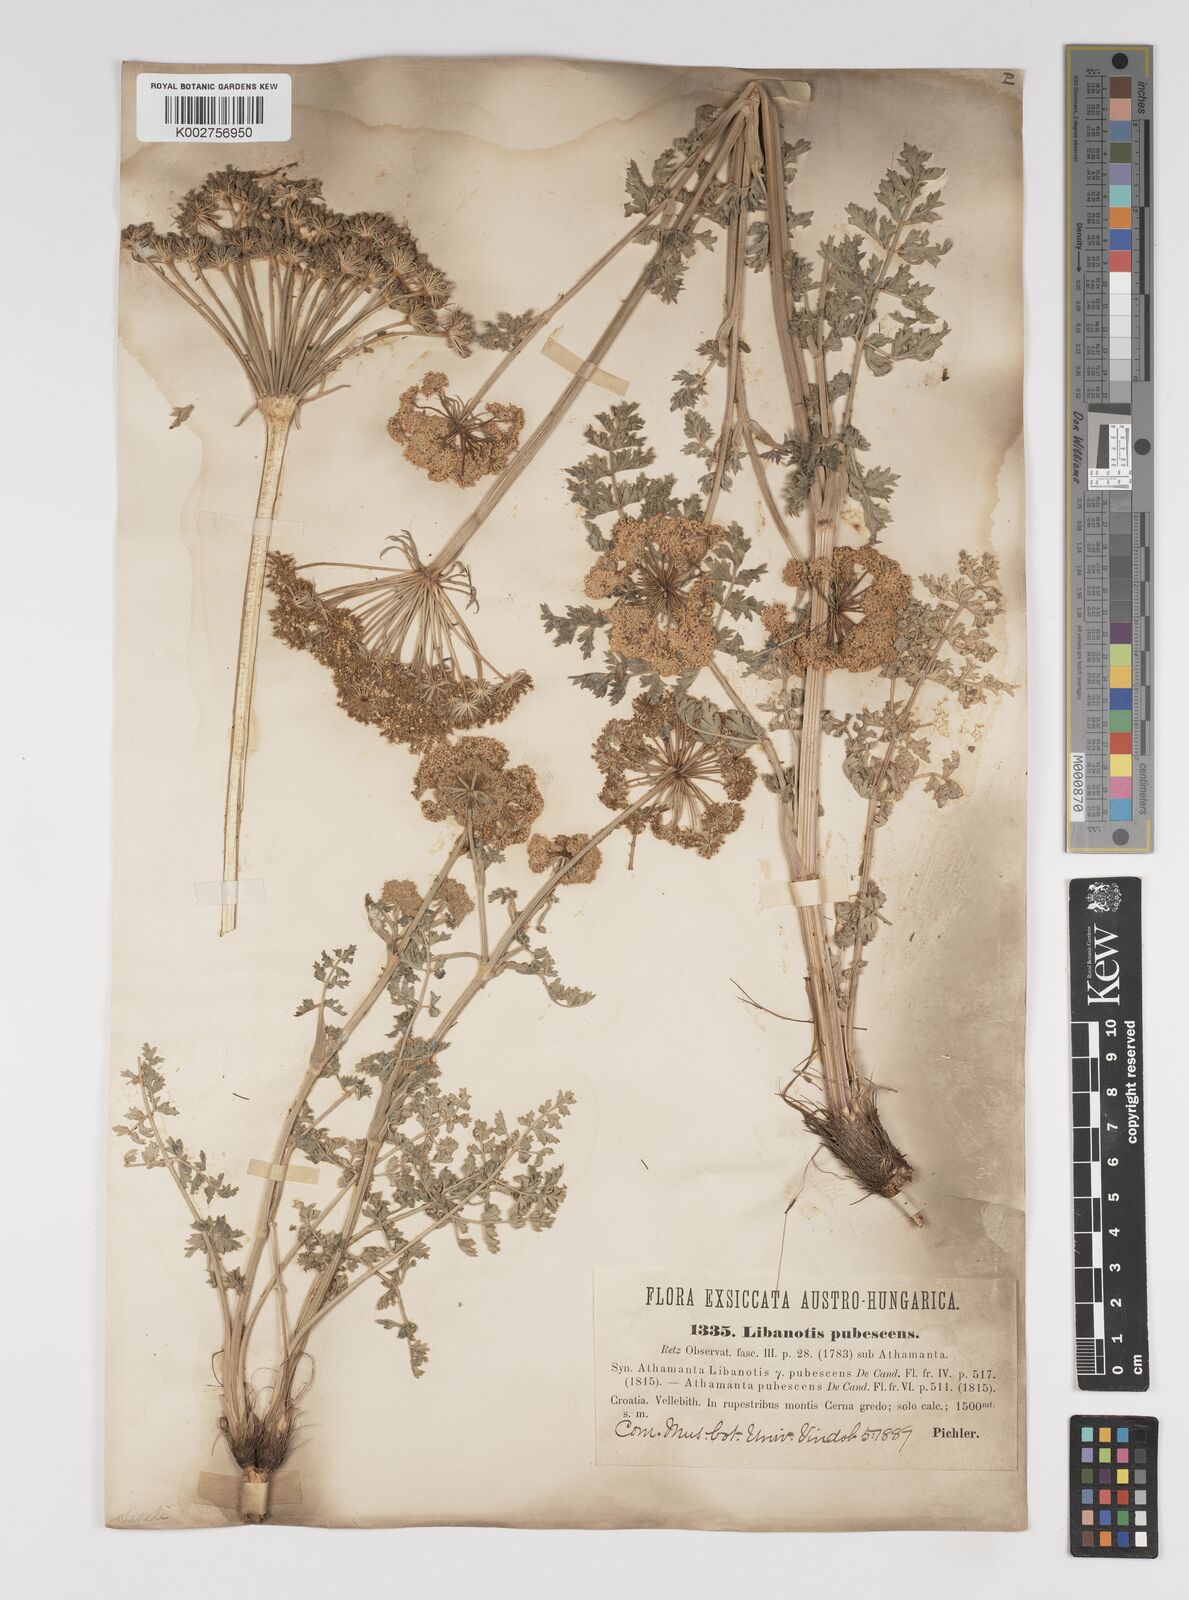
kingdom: Plantae
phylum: Tracheophyta
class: Magnoliopsida
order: Apiales
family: Apiaceae
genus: Seseli
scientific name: Seseli libanotis
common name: Mooncarrot
